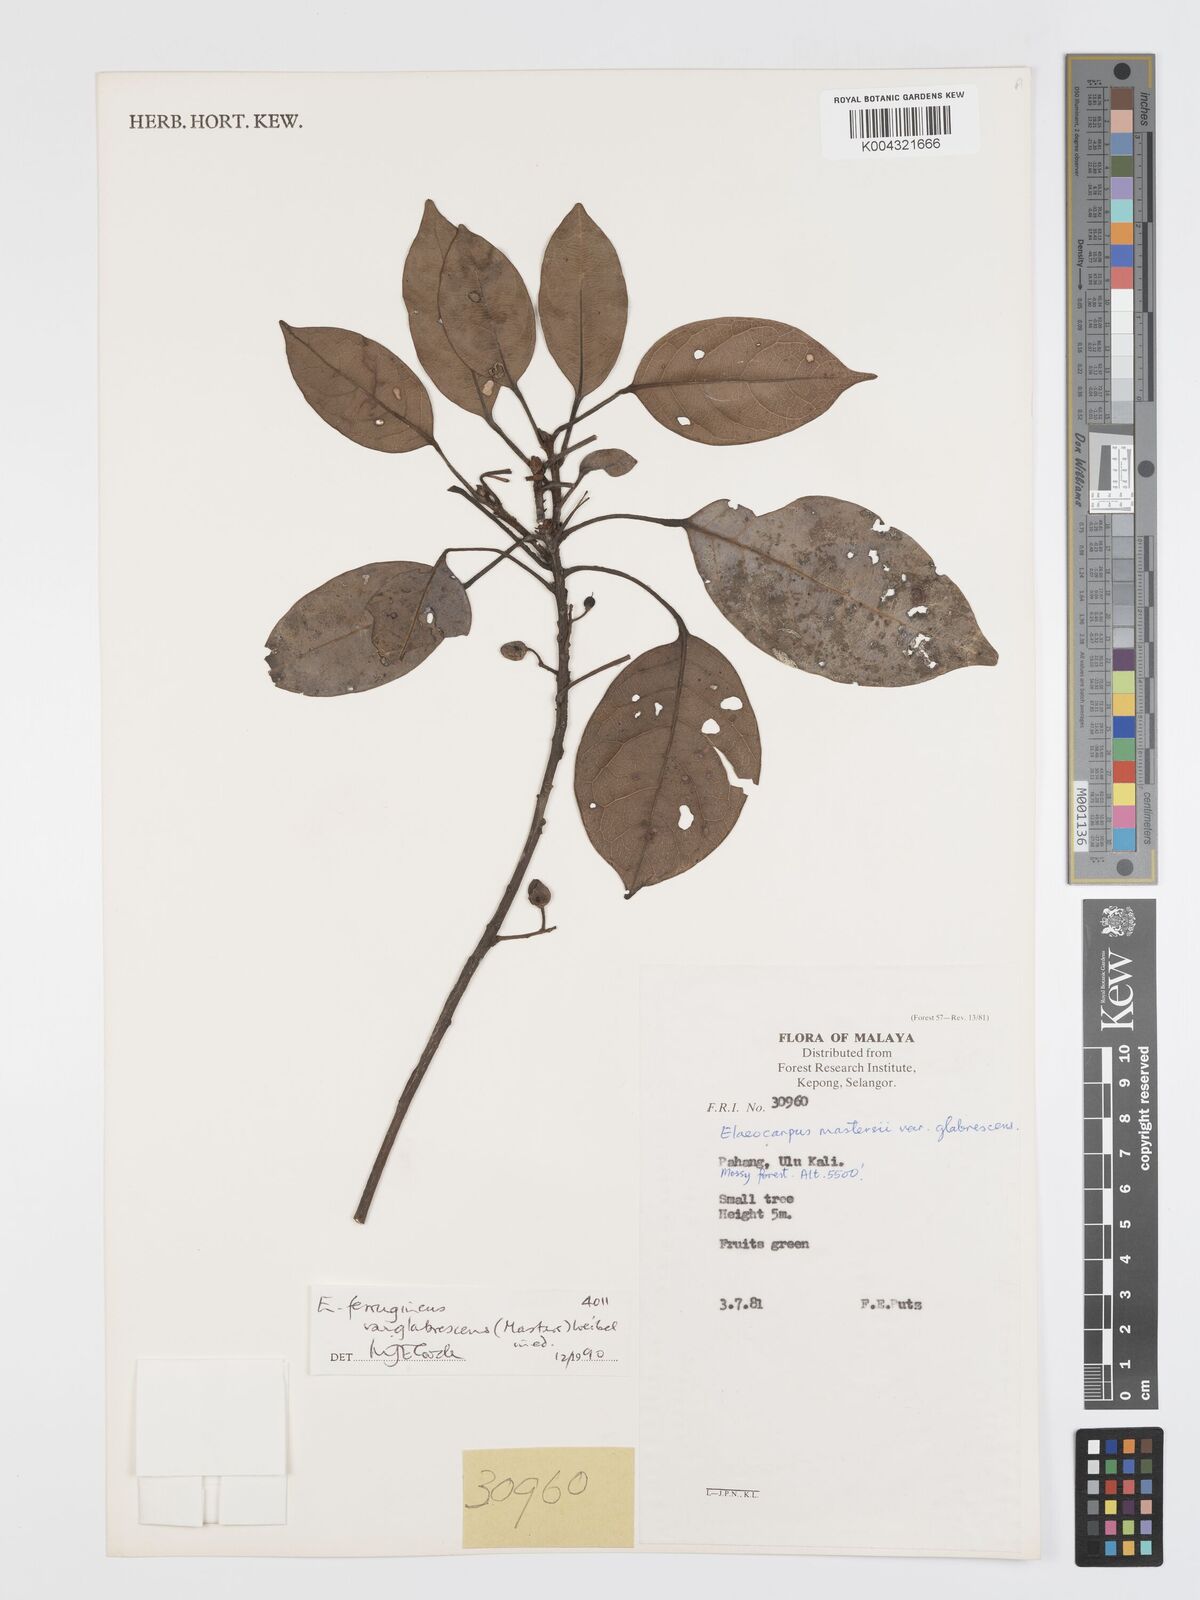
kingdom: Plantae
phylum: Tracheophyta
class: Magnoliopsida
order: Oxalidales
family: Elaeocarpaceae
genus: Elaeocarpus
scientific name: Elaeocarpus ferrugineus
